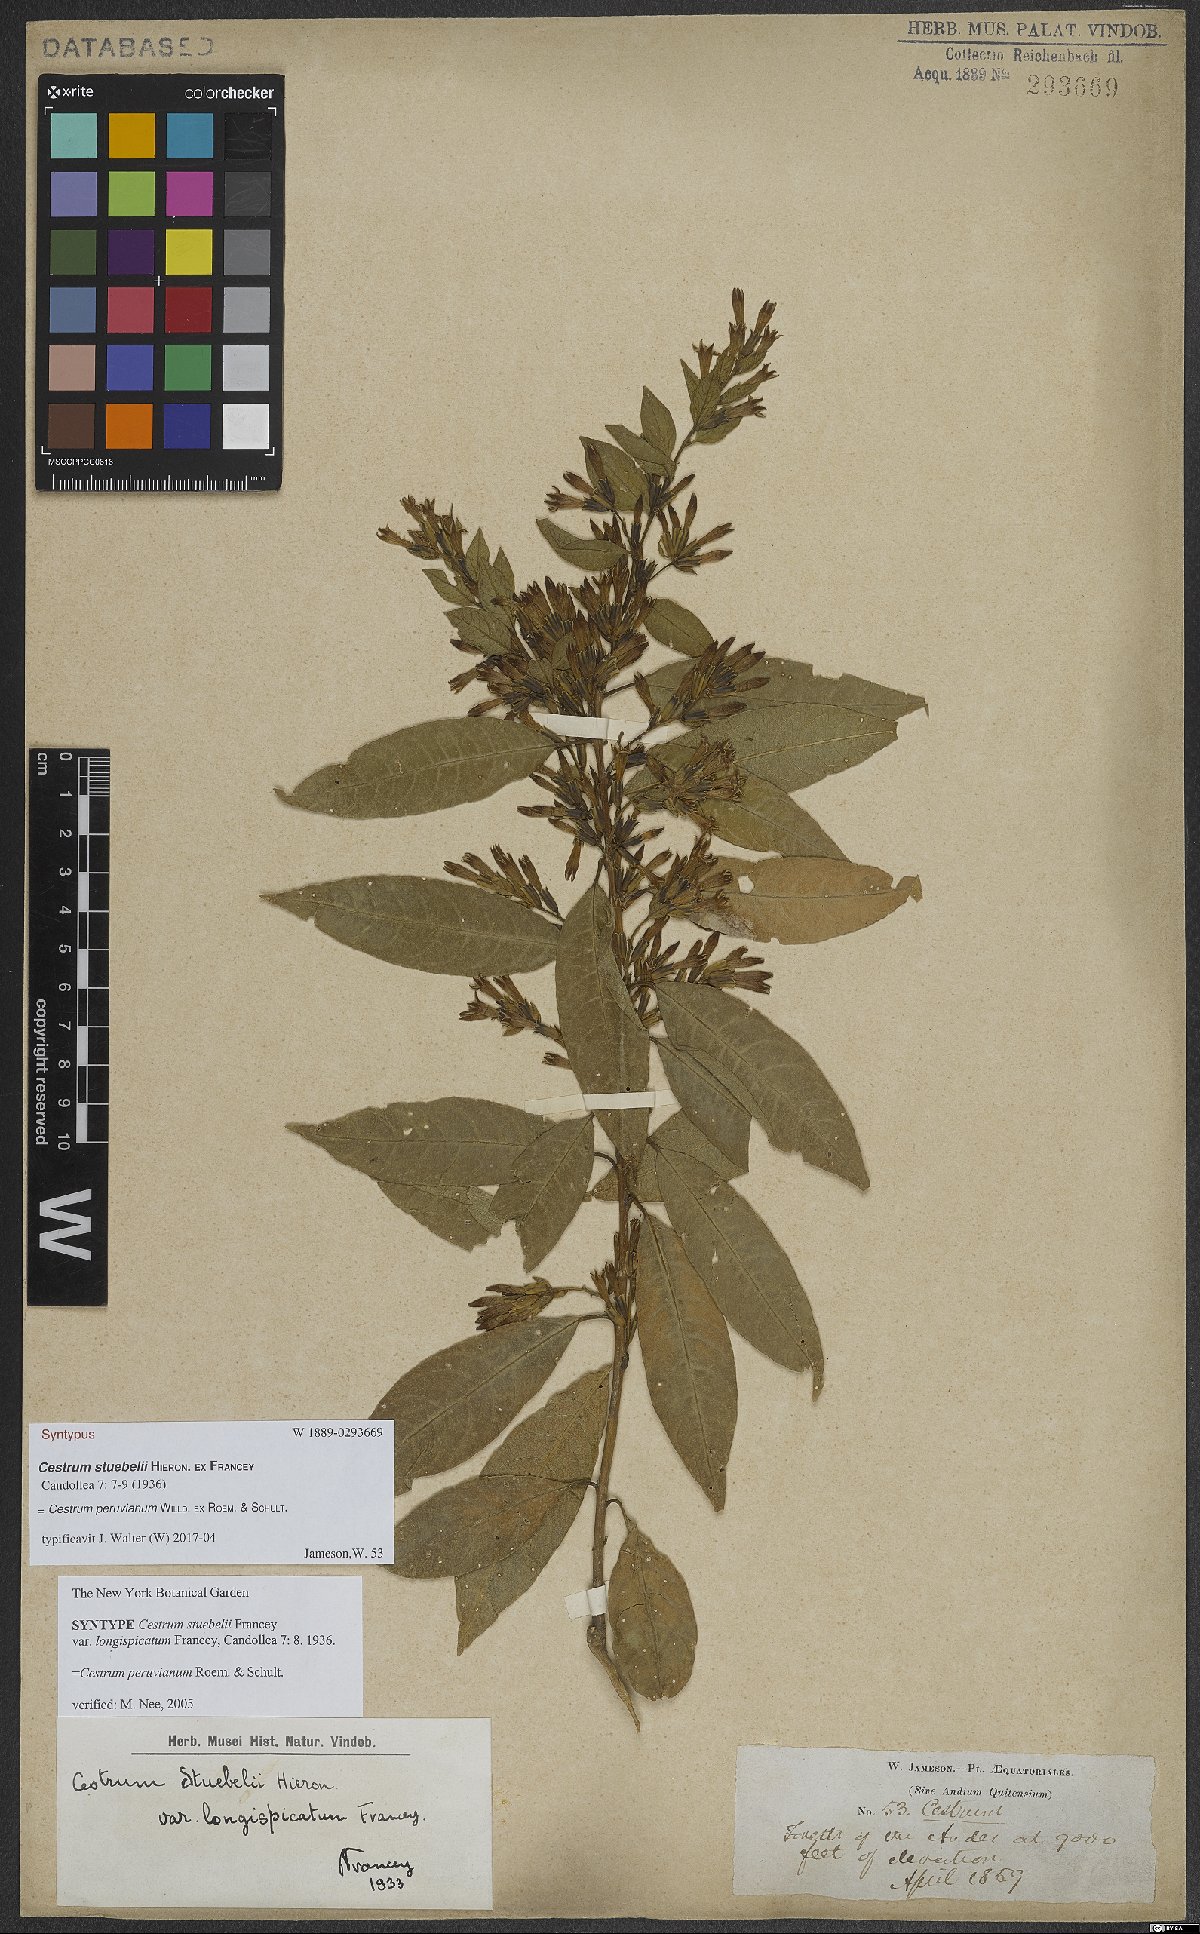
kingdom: Plantae
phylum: Tracheophyta
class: Magnoliopsida
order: Solanales
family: Solanaceae
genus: Cestrum
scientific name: Cestrum peruvianum
